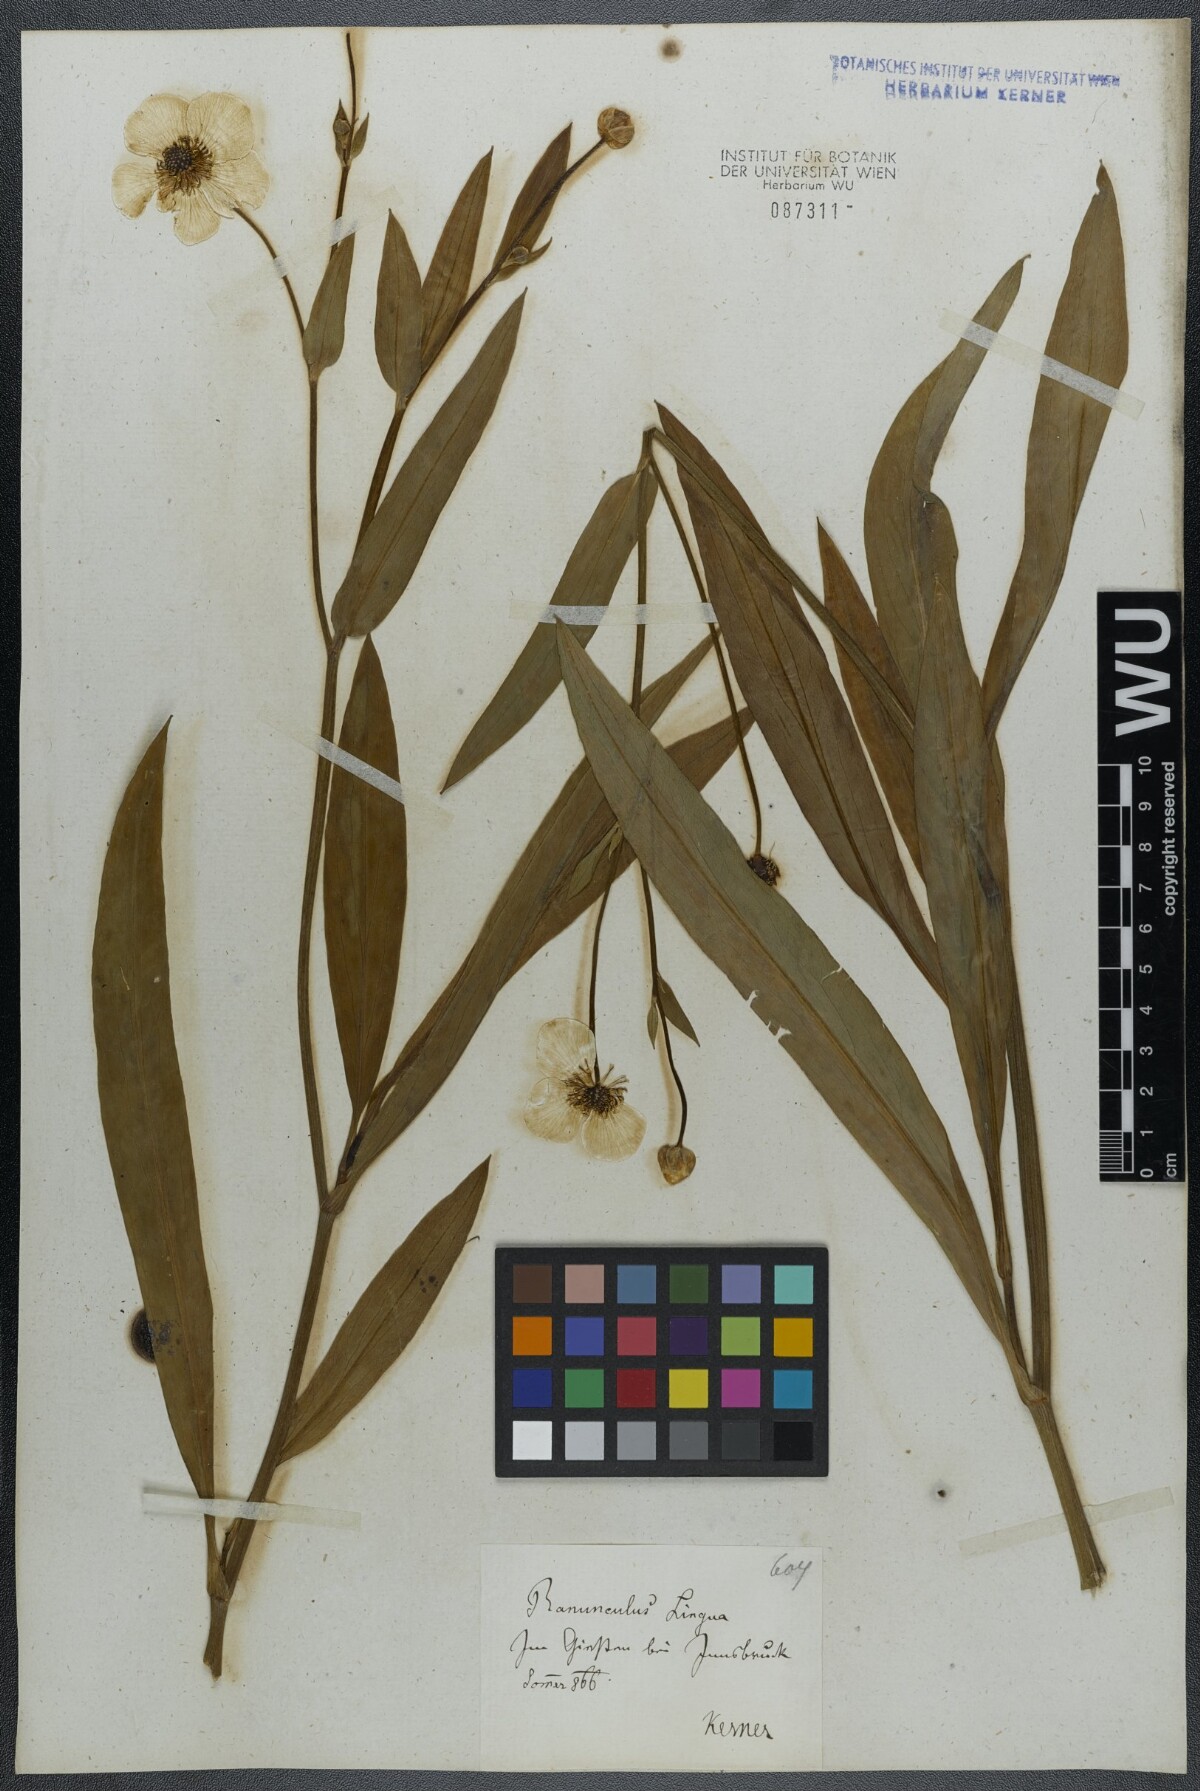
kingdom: Plantae
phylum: Tracheophyta
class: Magnoliopsida
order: Ranunculales
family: Ranunculaceae
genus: Ranunculus
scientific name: Ranunculus lingua
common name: Greater spearwort
